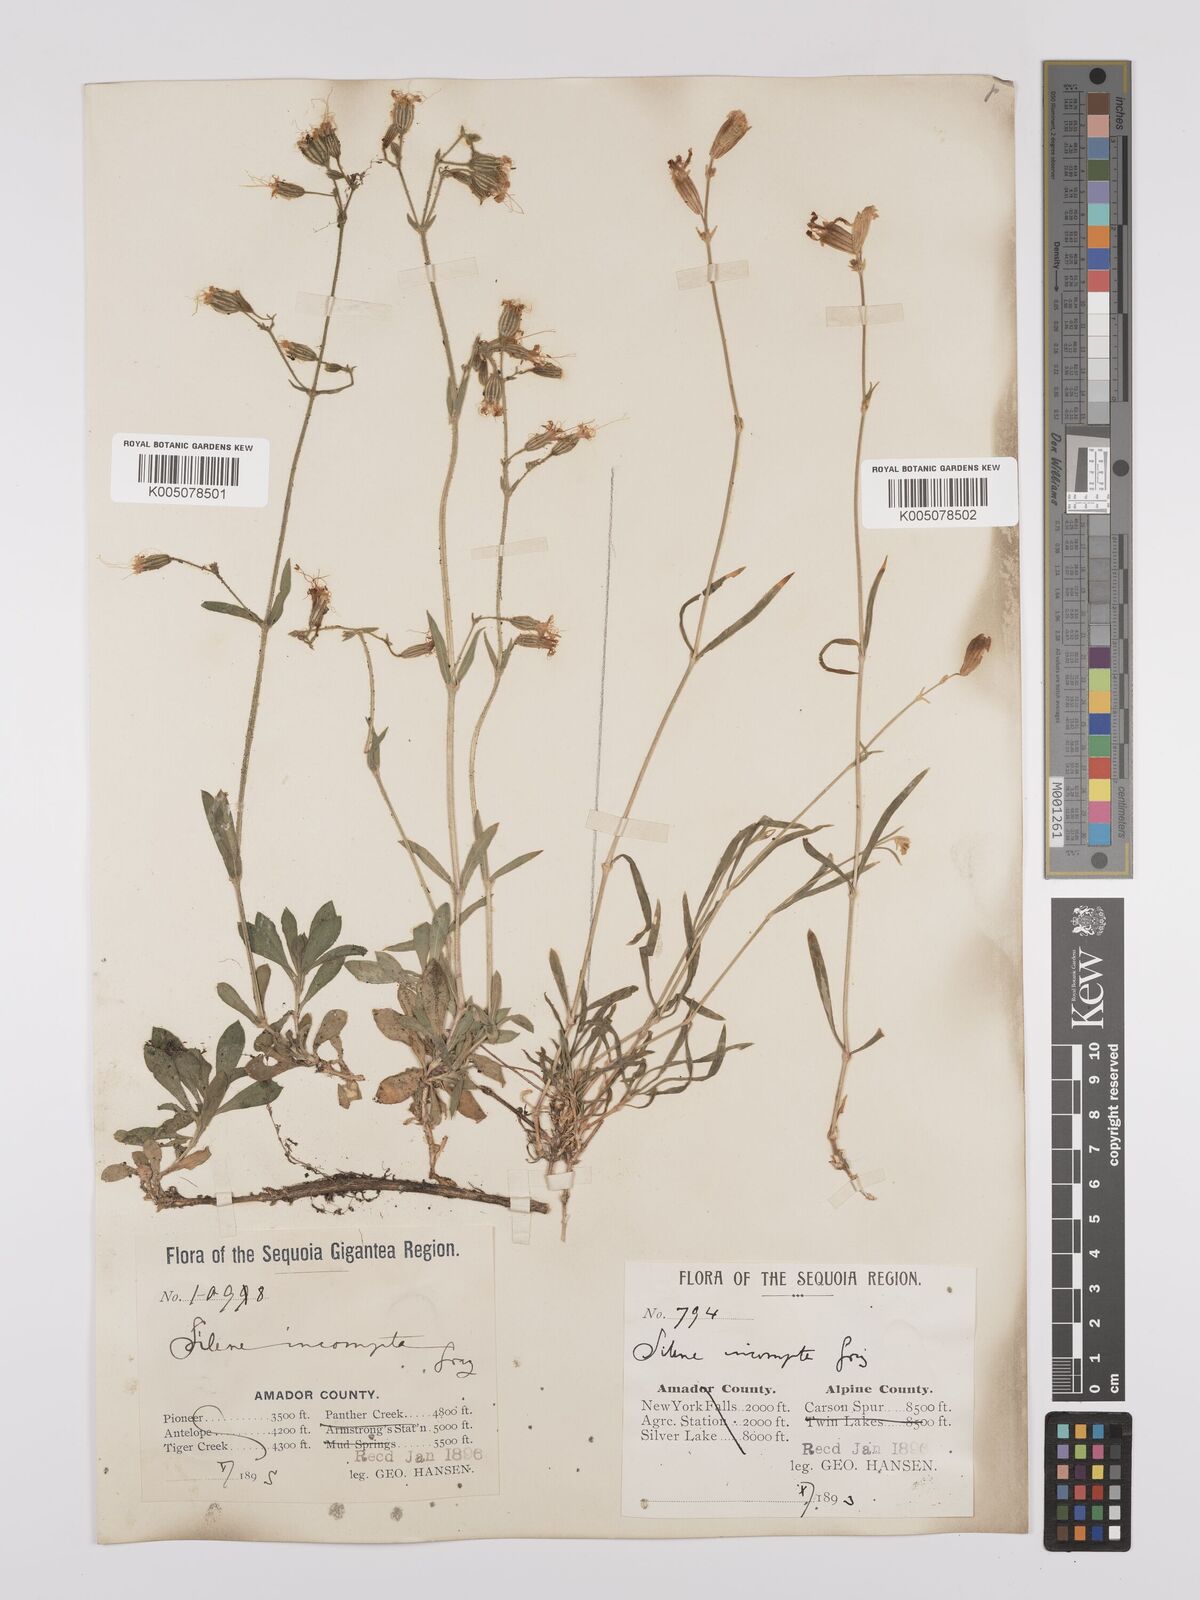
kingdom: Plantae
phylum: Tracheophyta
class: Magnoliopsida
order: Caryophyllales
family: Caryophyllaceae
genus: Silene
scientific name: Silene lemmonii
